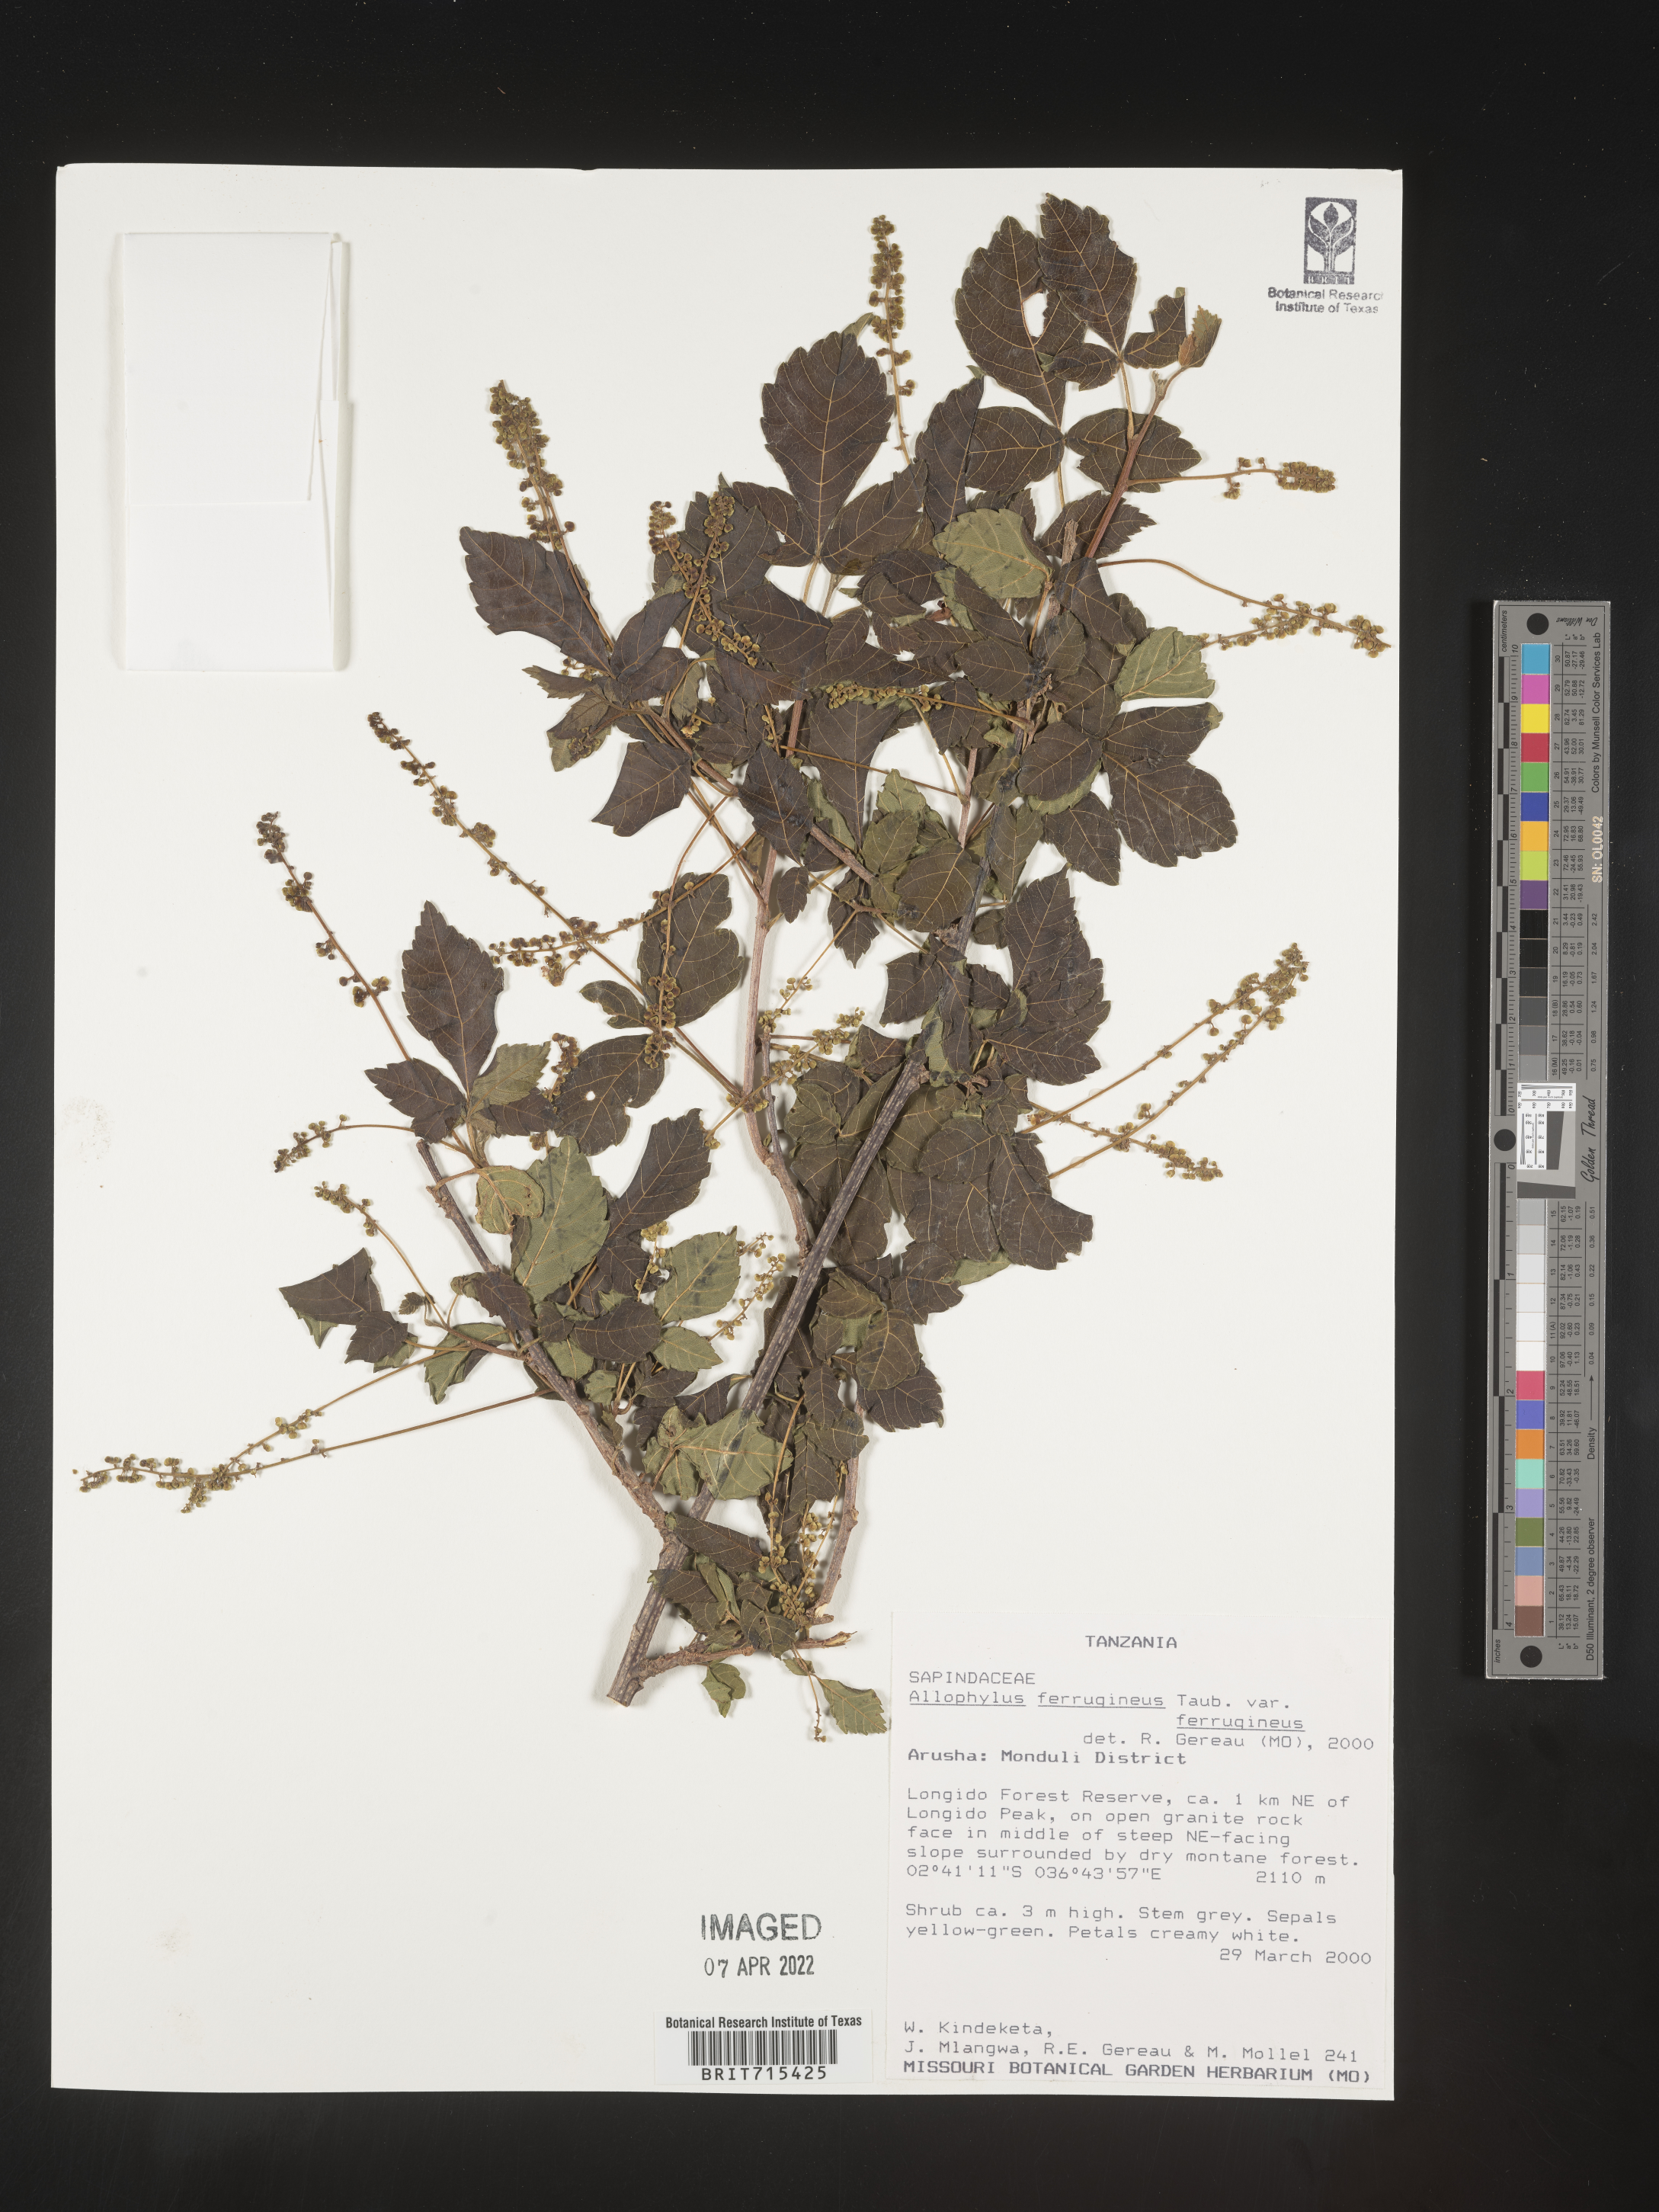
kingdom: Plantae
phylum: Tracheophyta
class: Magnoliopsida
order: Sapindales
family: Sapindaceae
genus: Allophylus
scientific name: Allophylus ferrugineus
